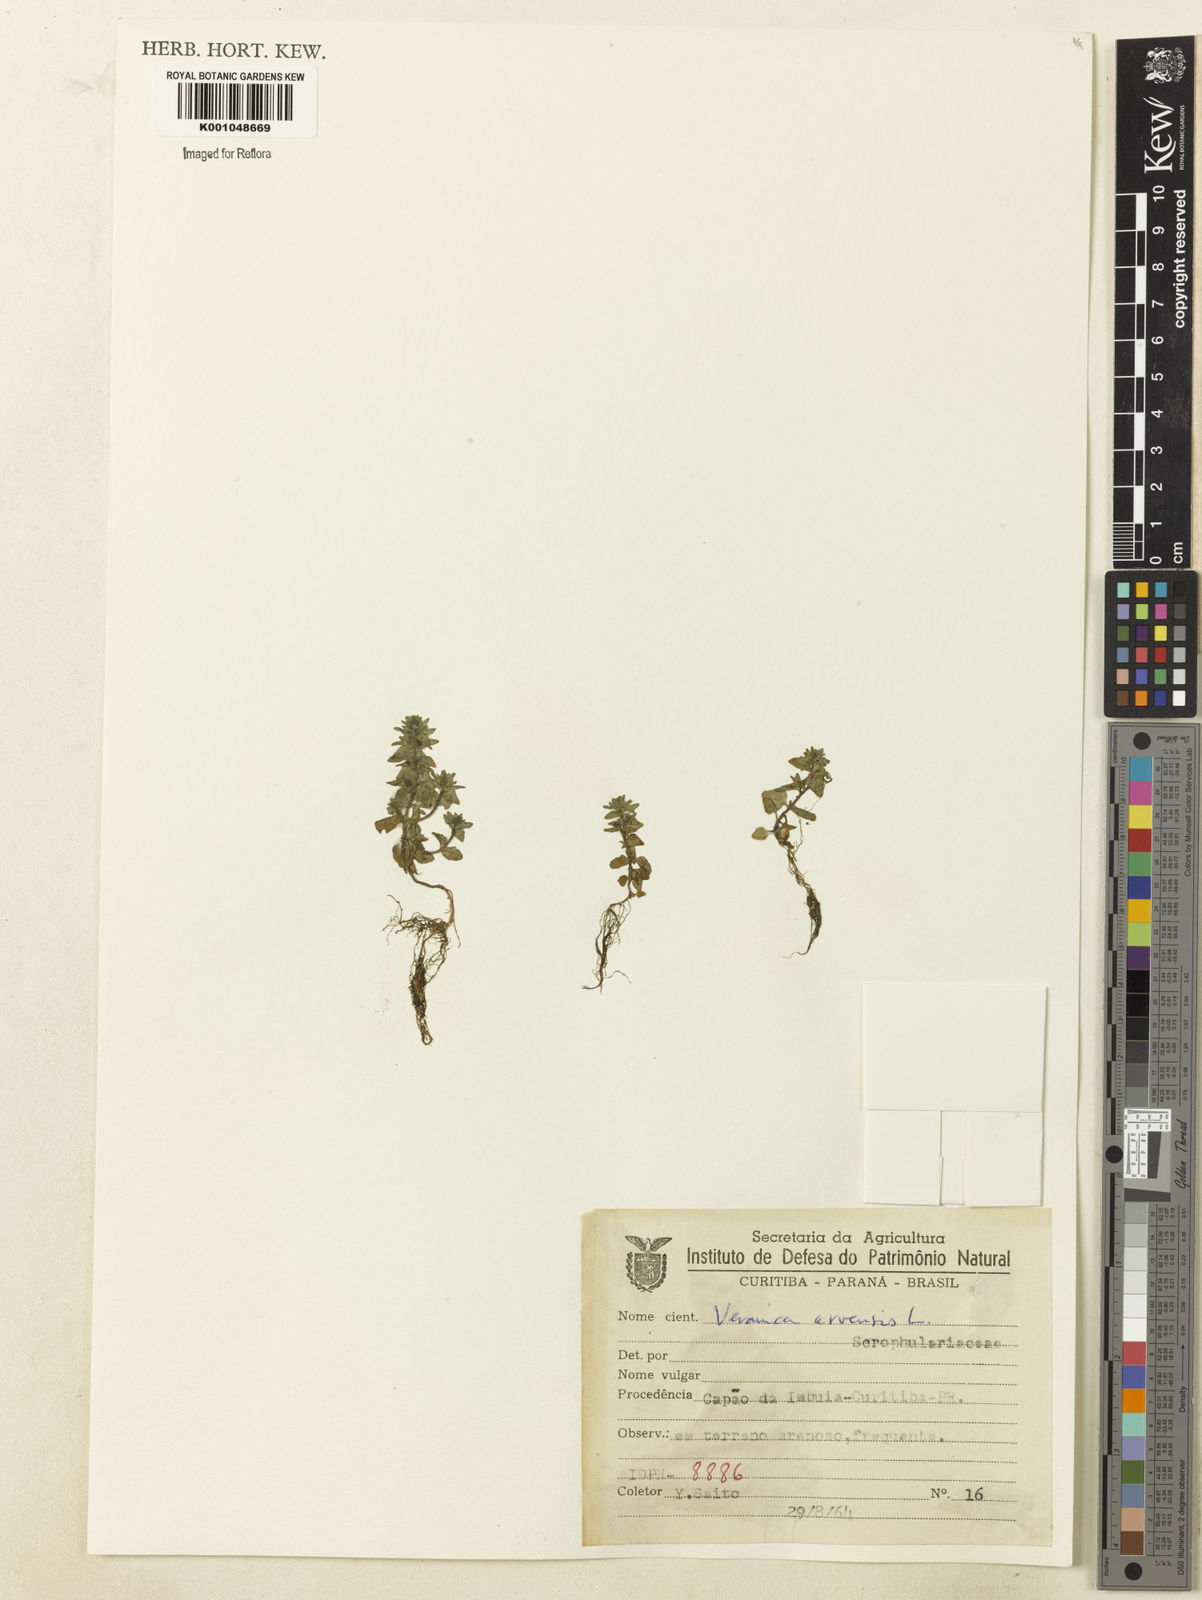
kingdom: Plantae
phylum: Tracheophyta
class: Magnoliopsida
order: Lamiales
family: Plantaginaceae
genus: Veronica
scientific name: Veronica arvensis
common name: Corn speedwell
